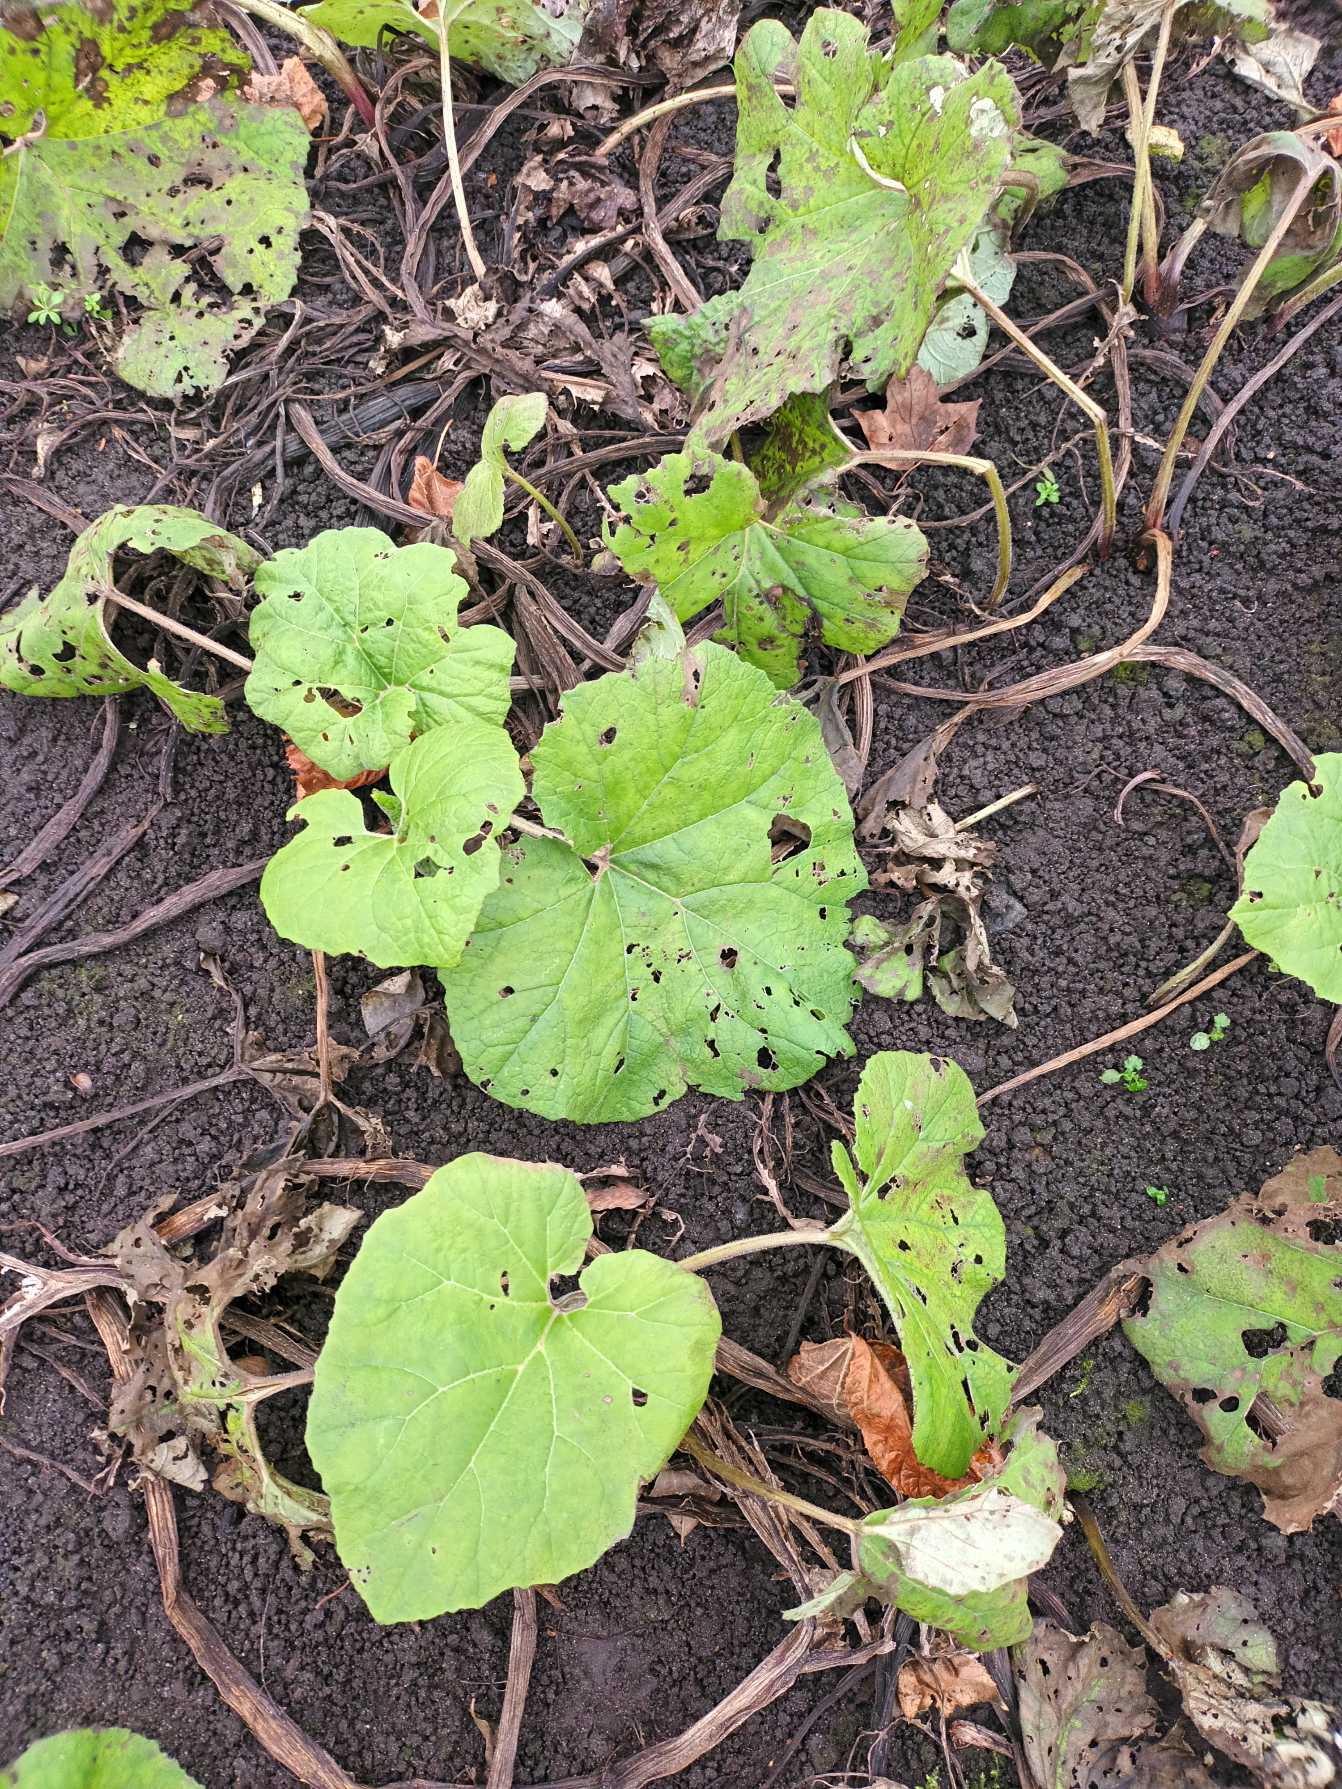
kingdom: Plantae
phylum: Tracheophyta
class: Magnoliopsida
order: Asterales
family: Asteraceae
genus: Petasites
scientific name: Petasites hybridus
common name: Rød hestehov
